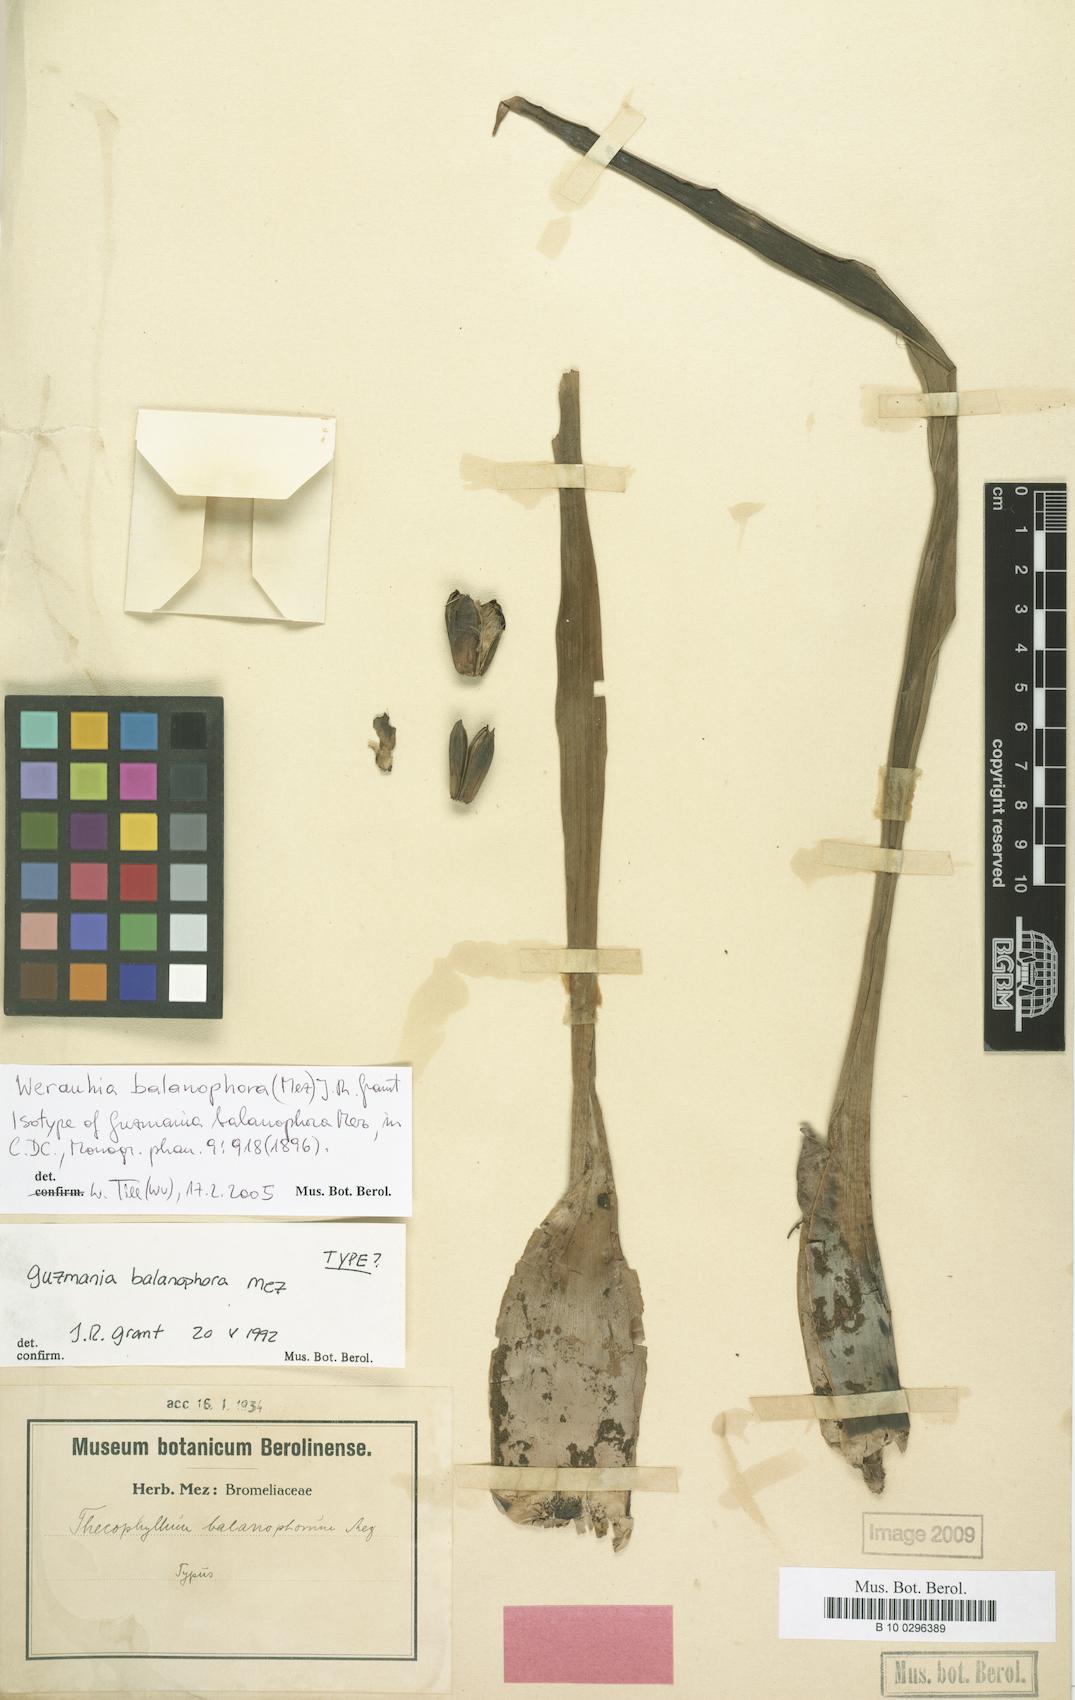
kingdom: Plantae
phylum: Tracheophyta
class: Liliopsida
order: Poales
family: Bromeliaceae
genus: Werauhia
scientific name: Werauhia balanophora
